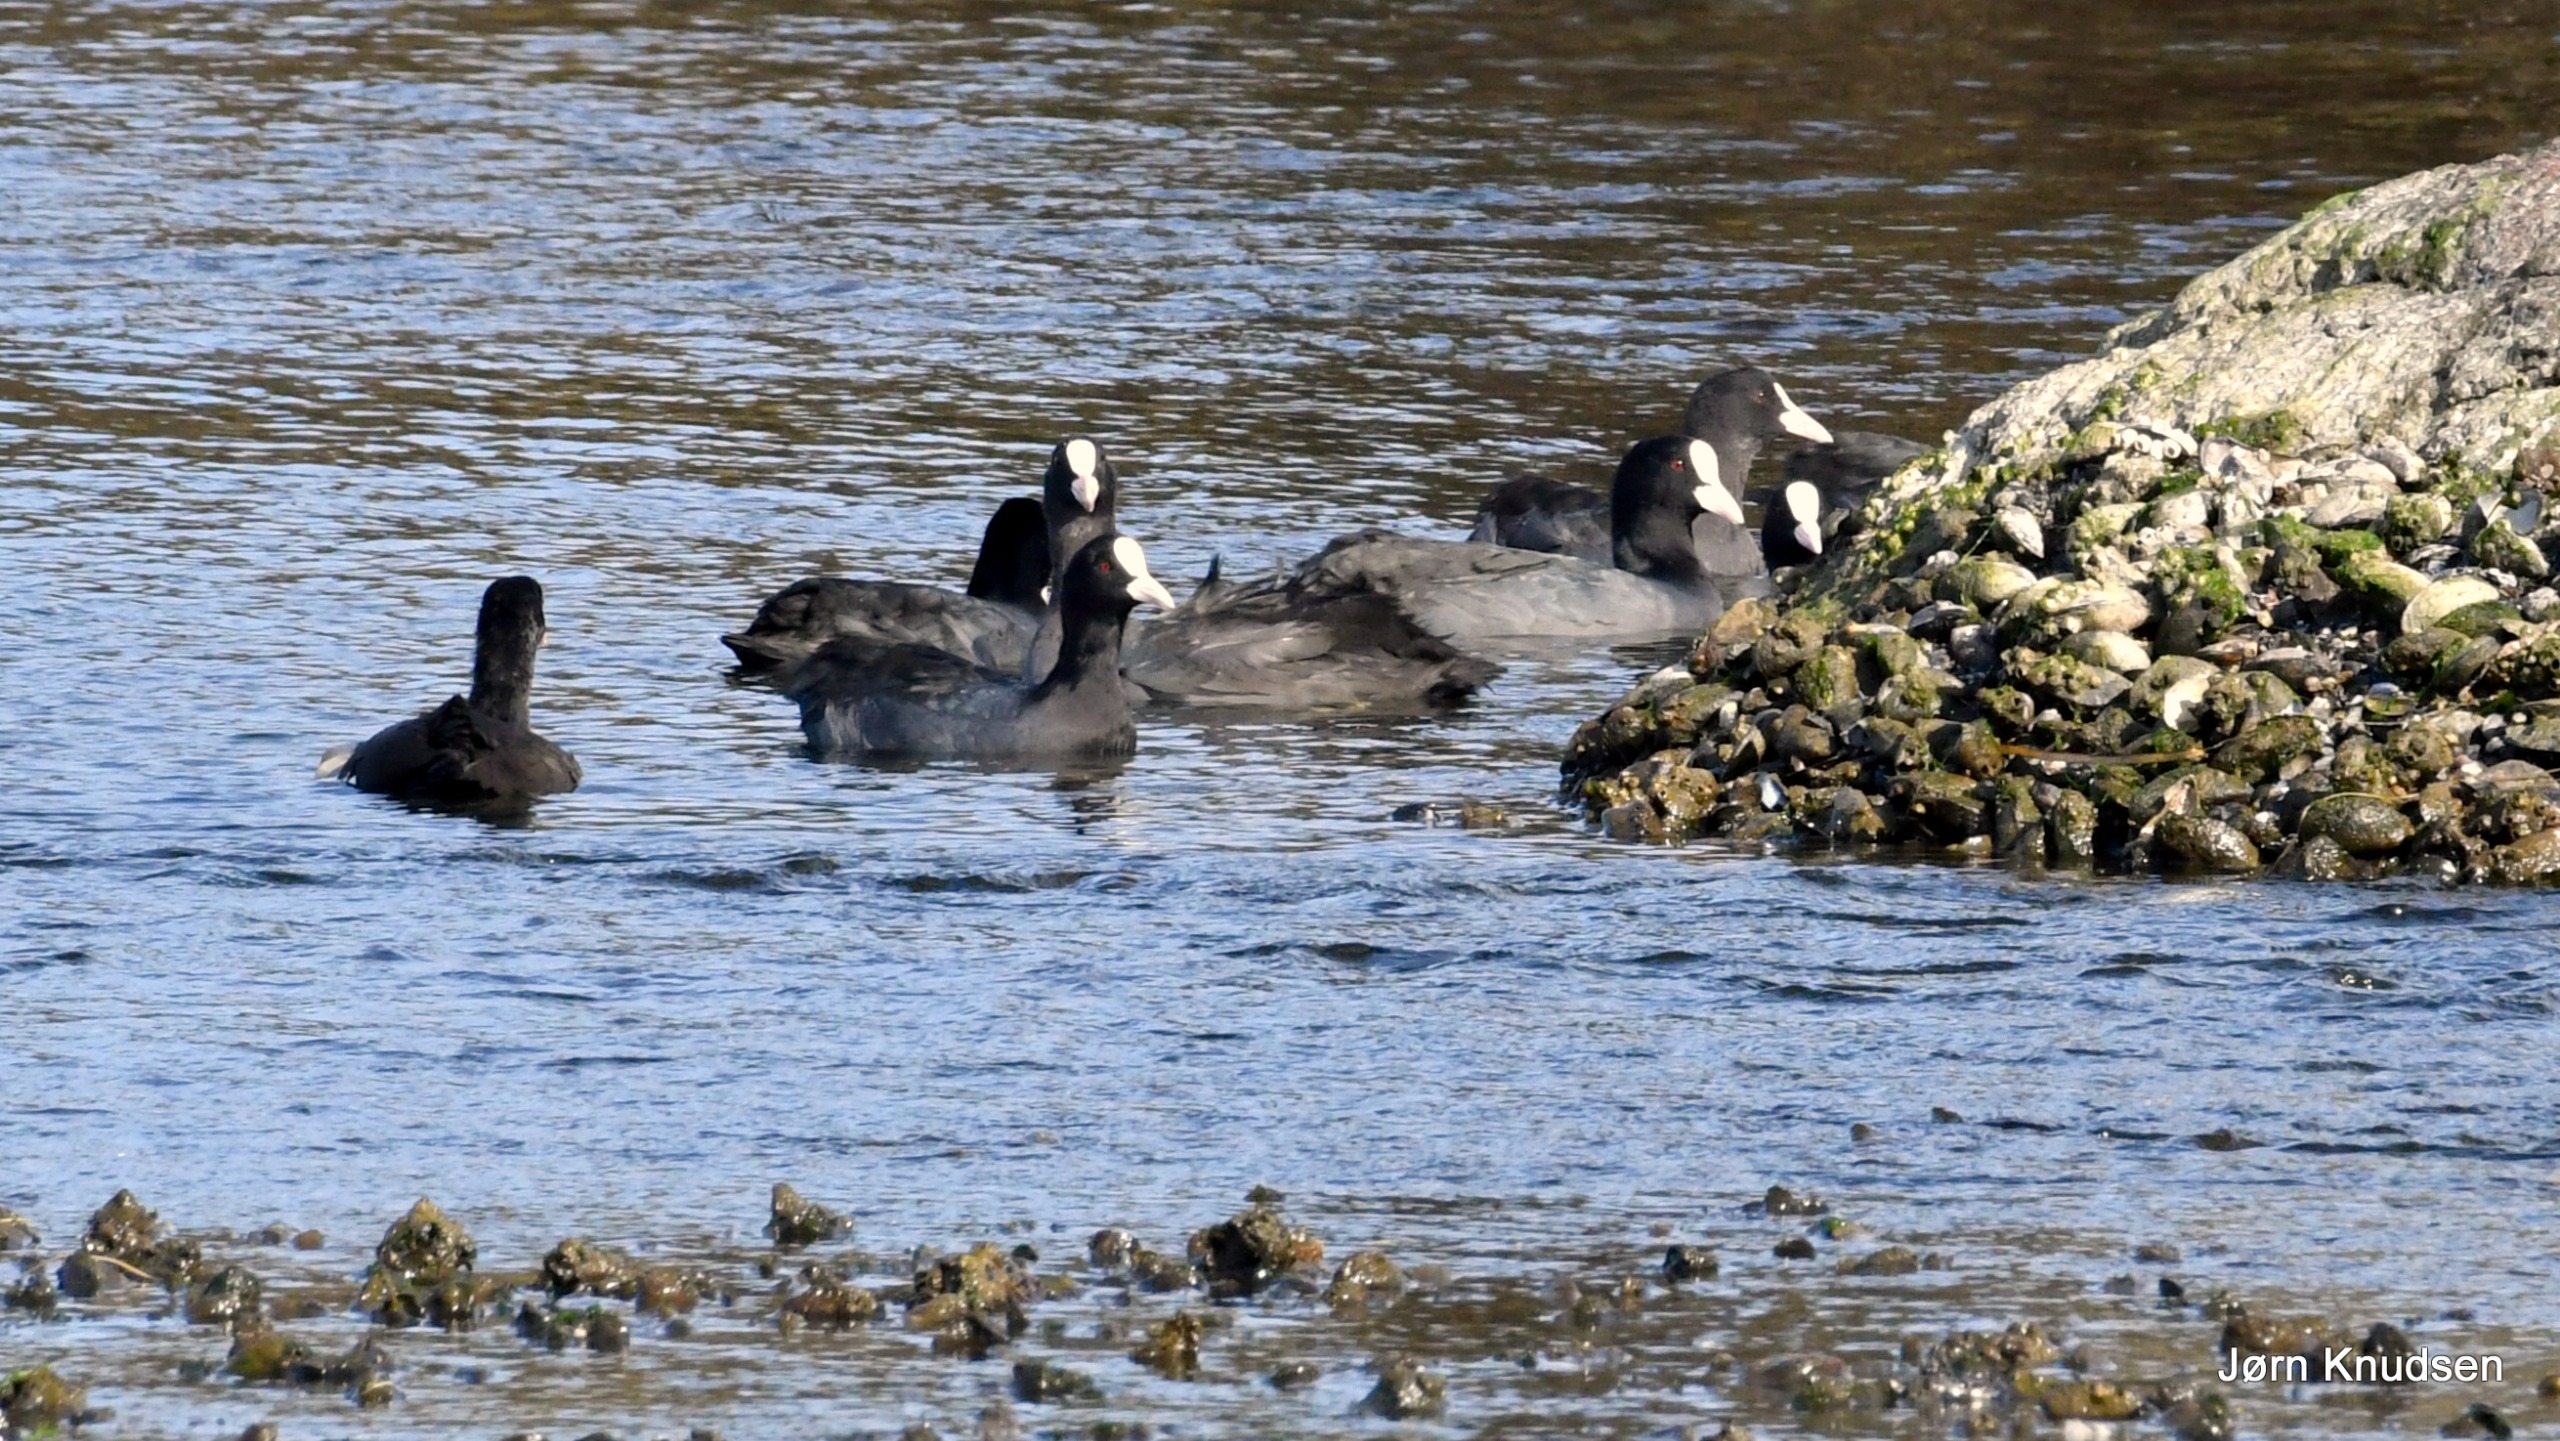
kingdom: Animalia
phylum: Chordata
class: Aves
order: Gruiformes
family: Rallidae
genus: Fulica
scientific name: Fulica atra
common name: Blishøne
